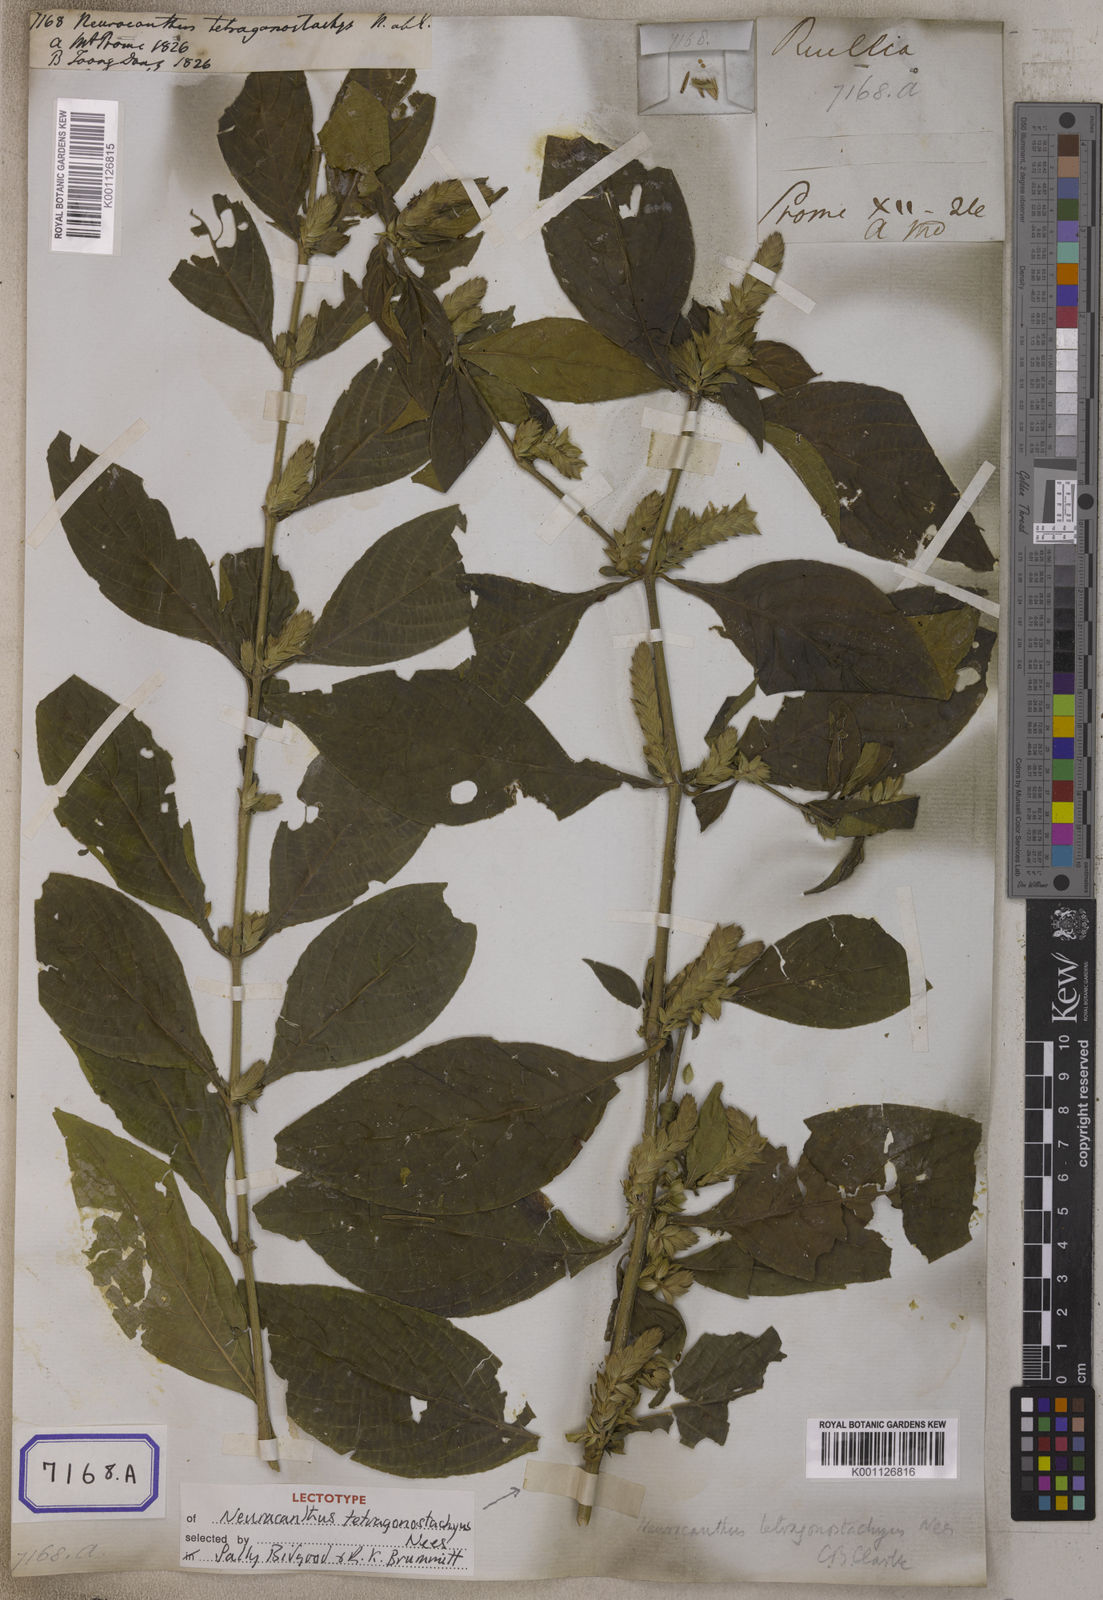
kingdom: Plantae
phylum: Tracheophyta
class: Magnoliopsida
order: Lamiales
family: Acanthaceae
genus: Neuracanthus
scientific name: Neuracanthus
